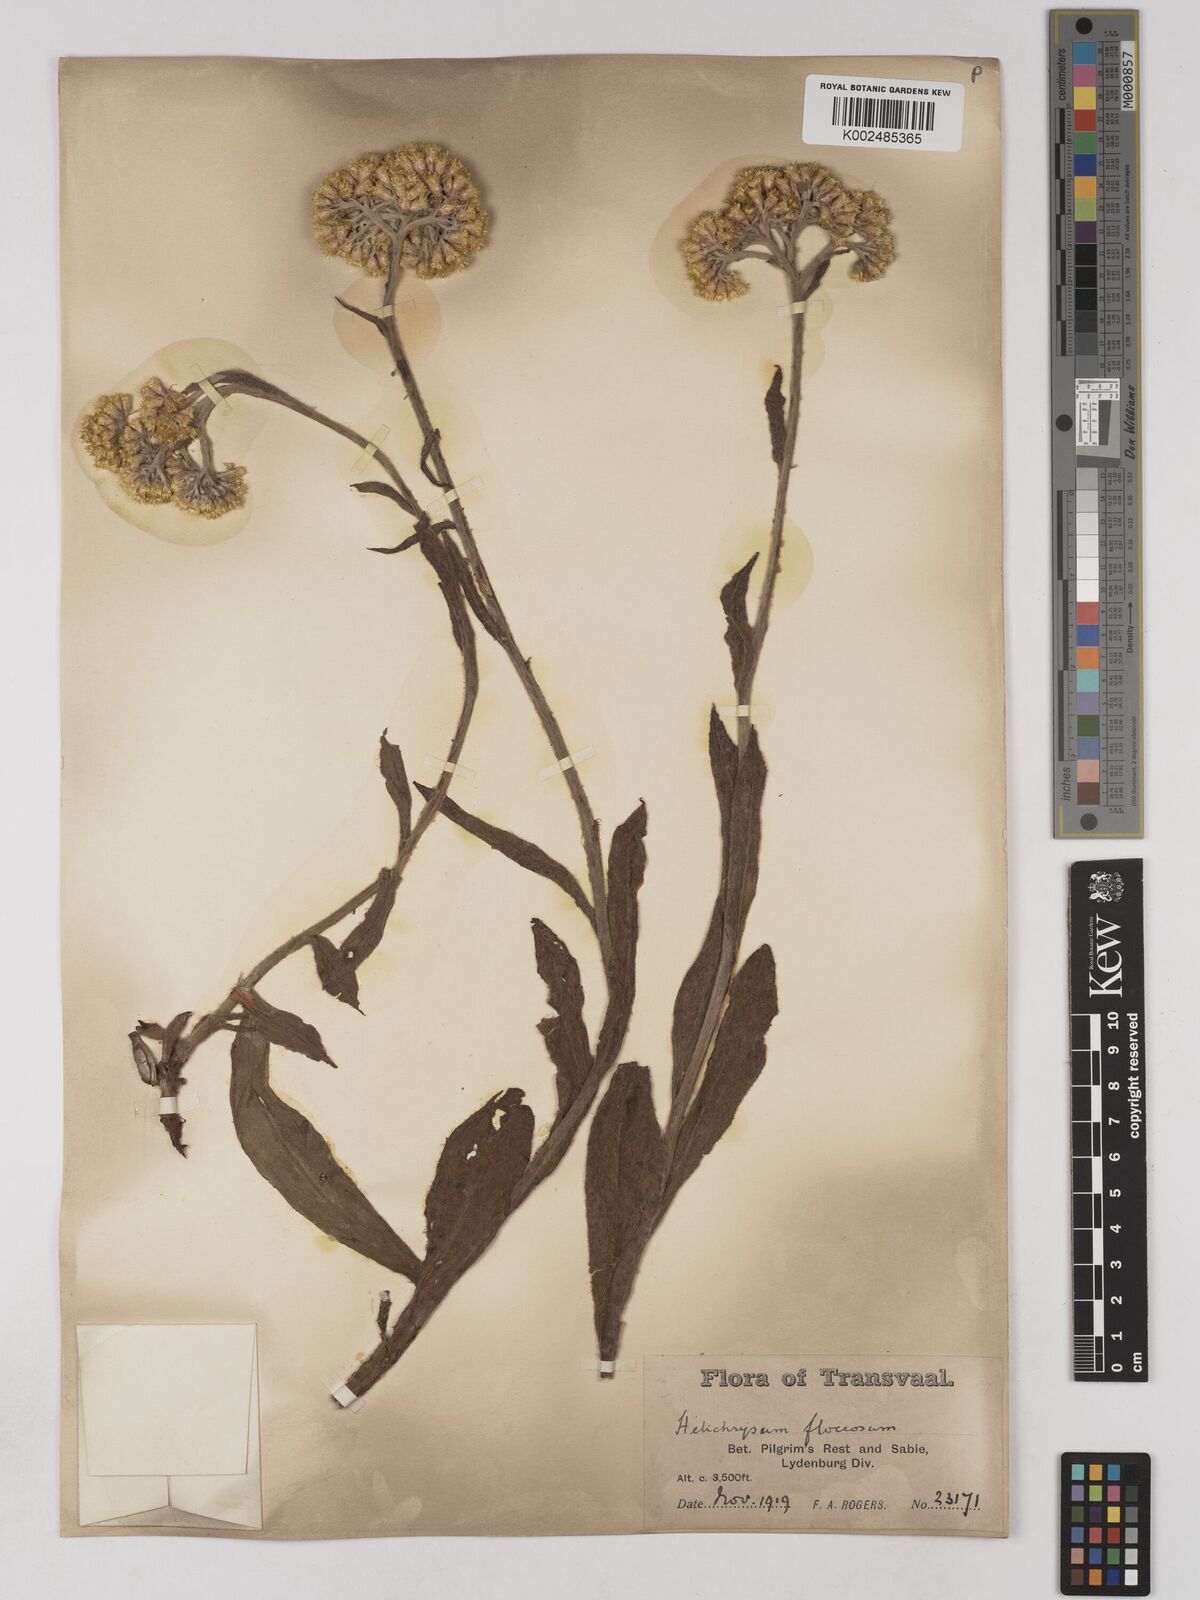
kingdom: Plantae
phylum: Tracheophyta
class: Magnoliopsida
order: Asterales
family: Asteraceae
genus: Helichrysum
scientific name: Helichrysum acutatum
